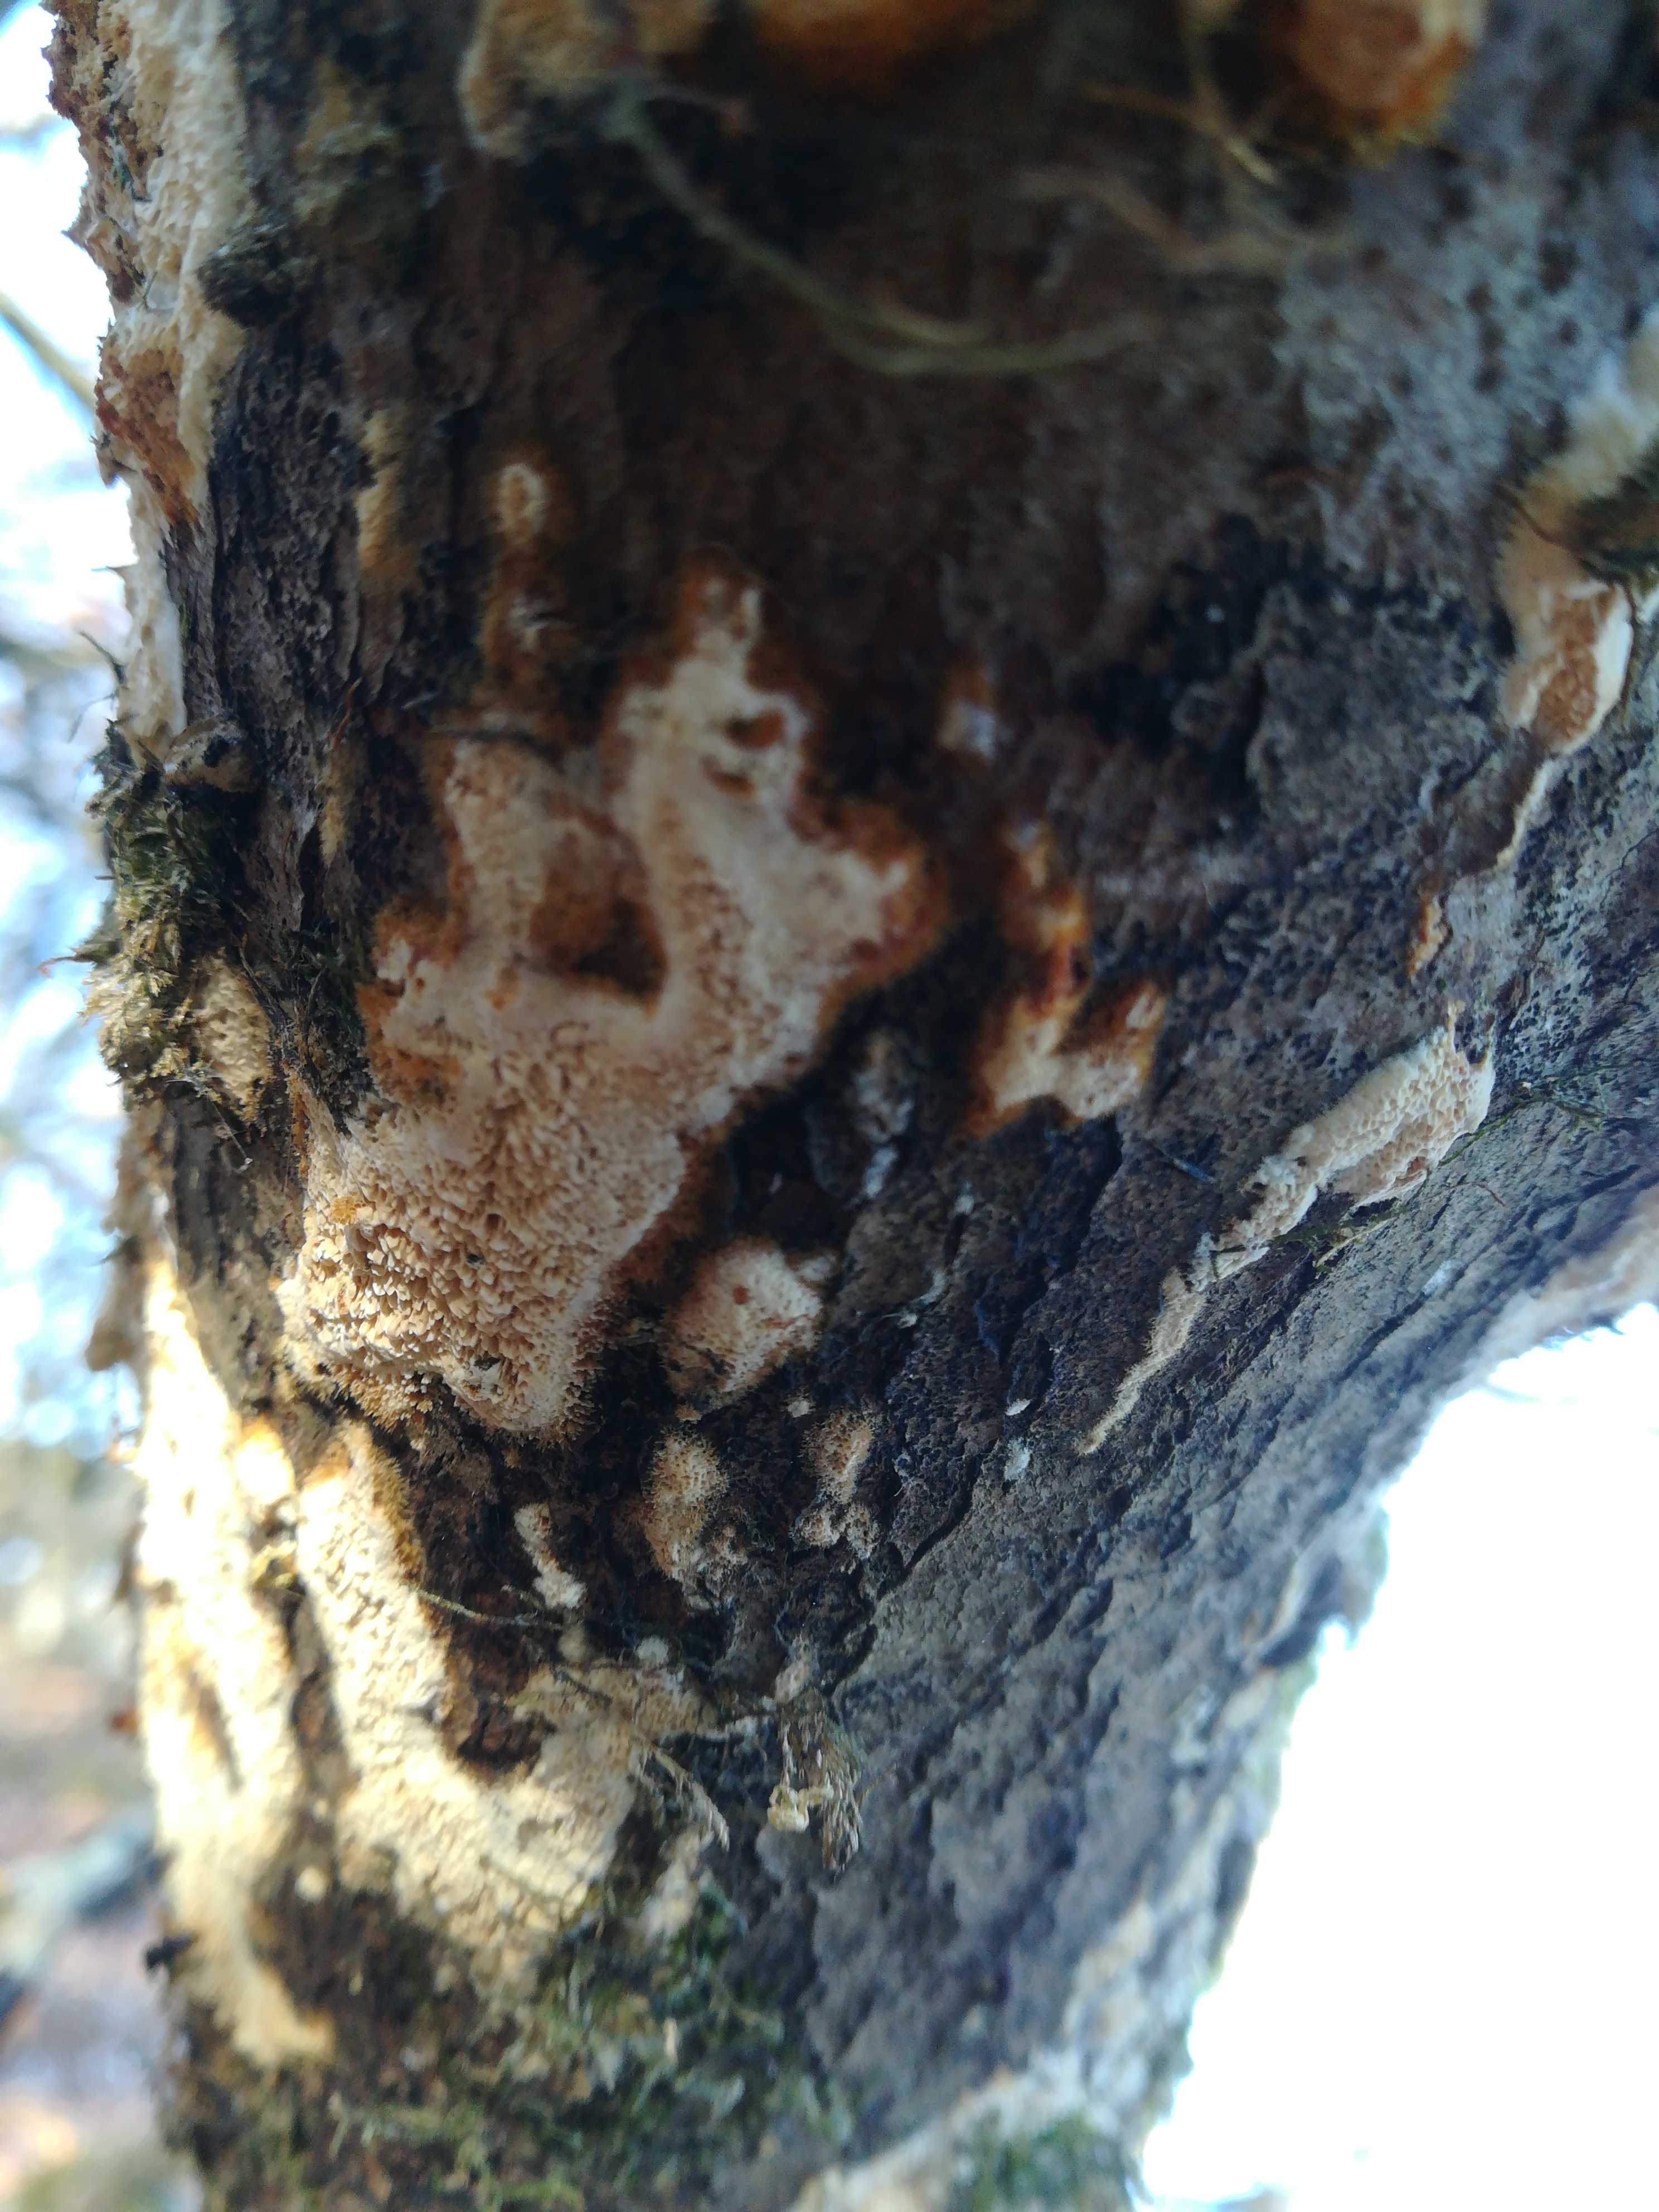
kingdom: Fungi
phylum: Basidiomycota
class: Agaricomycetes
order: Corticiales
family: Corticiaceae
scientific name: Corticiaceae
